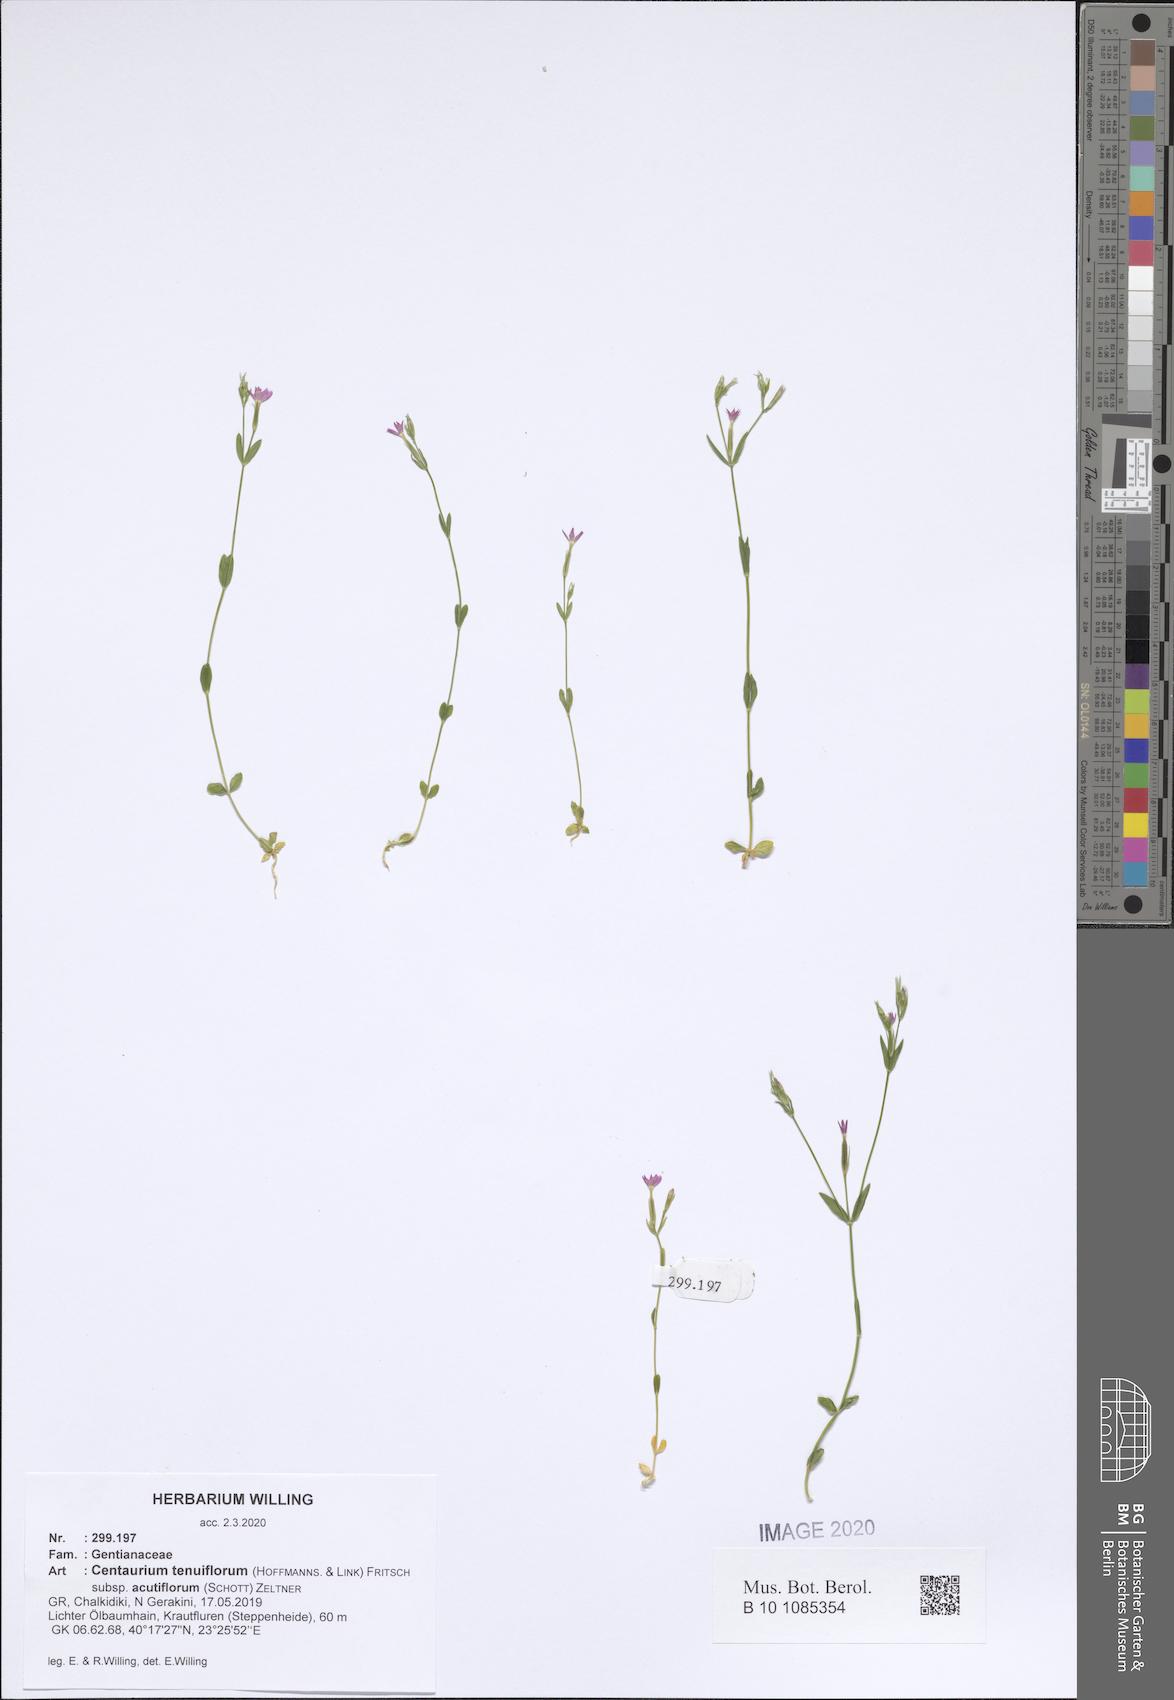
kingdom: Plantae
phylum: Tracheophyta
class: Magnoliopsida
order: Gentianales
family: Gentianaceae
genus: Centaurium
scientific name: Centaurium tenuiflorum
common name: Slender centaury
